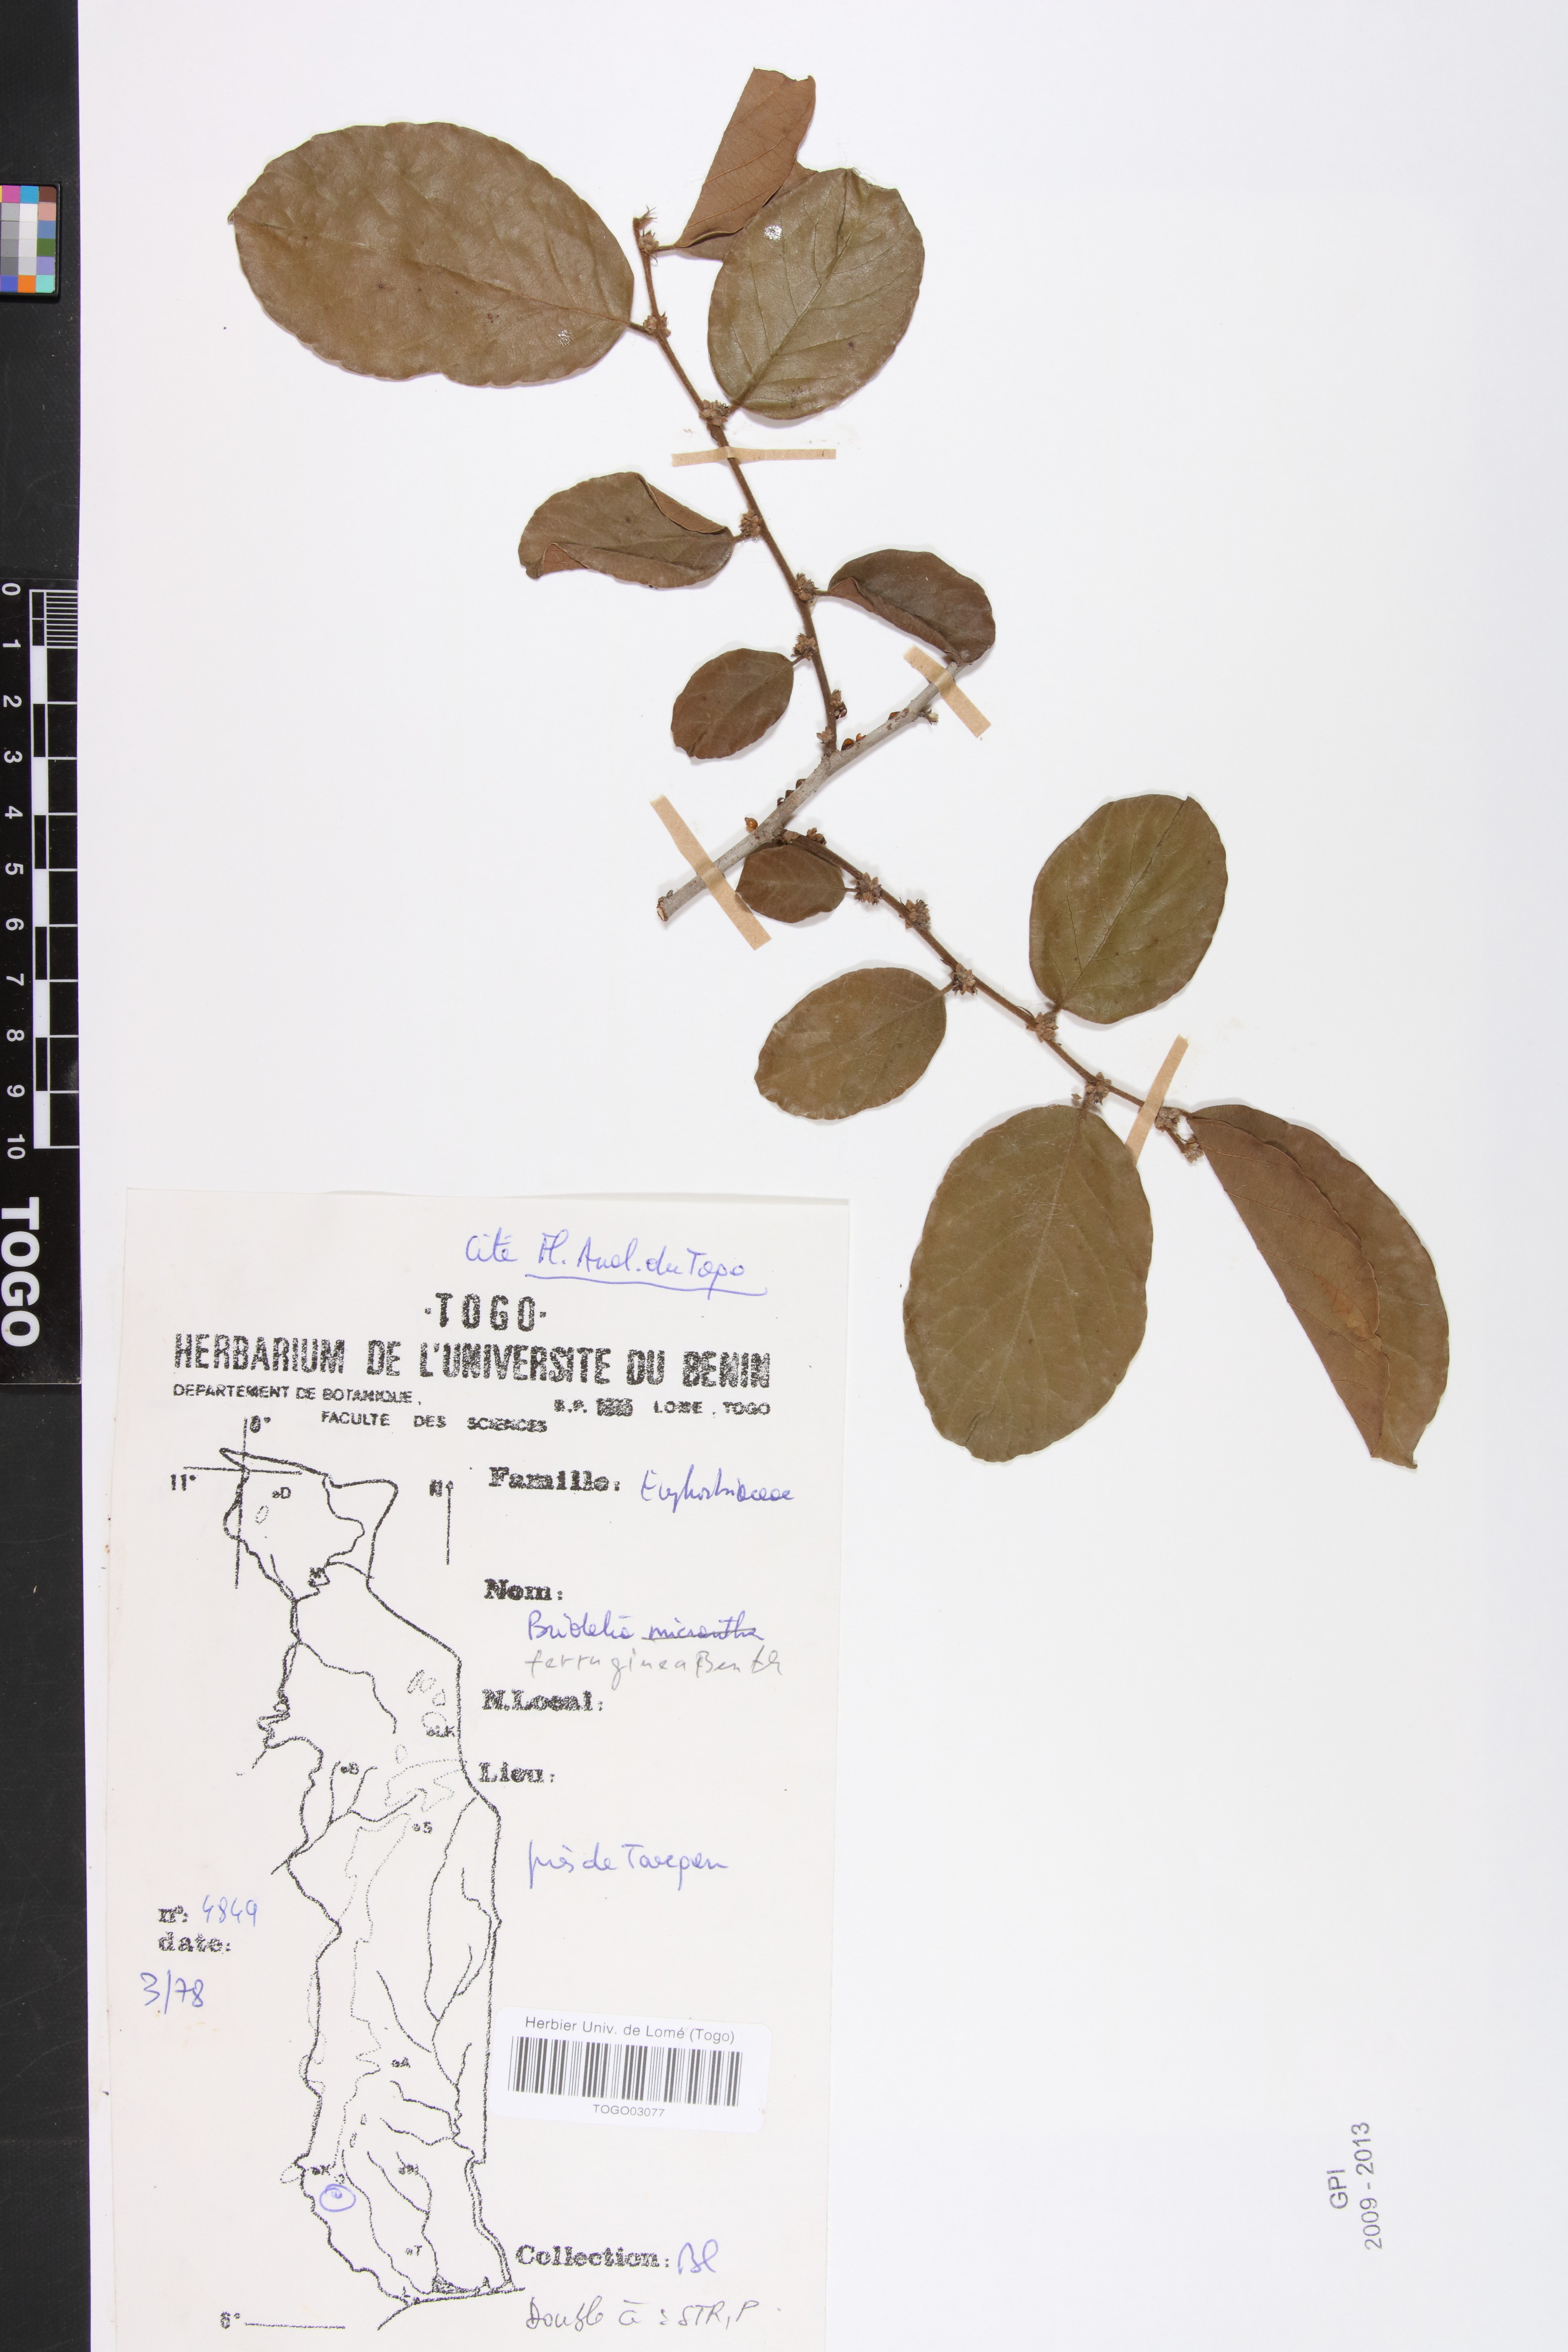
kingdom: Plantae
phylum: Tracheophyta
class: Magnoliopsida
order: Malpighiales
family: Phyllanthaceae
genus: Bridelia
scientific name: Bridelia ferruginea
